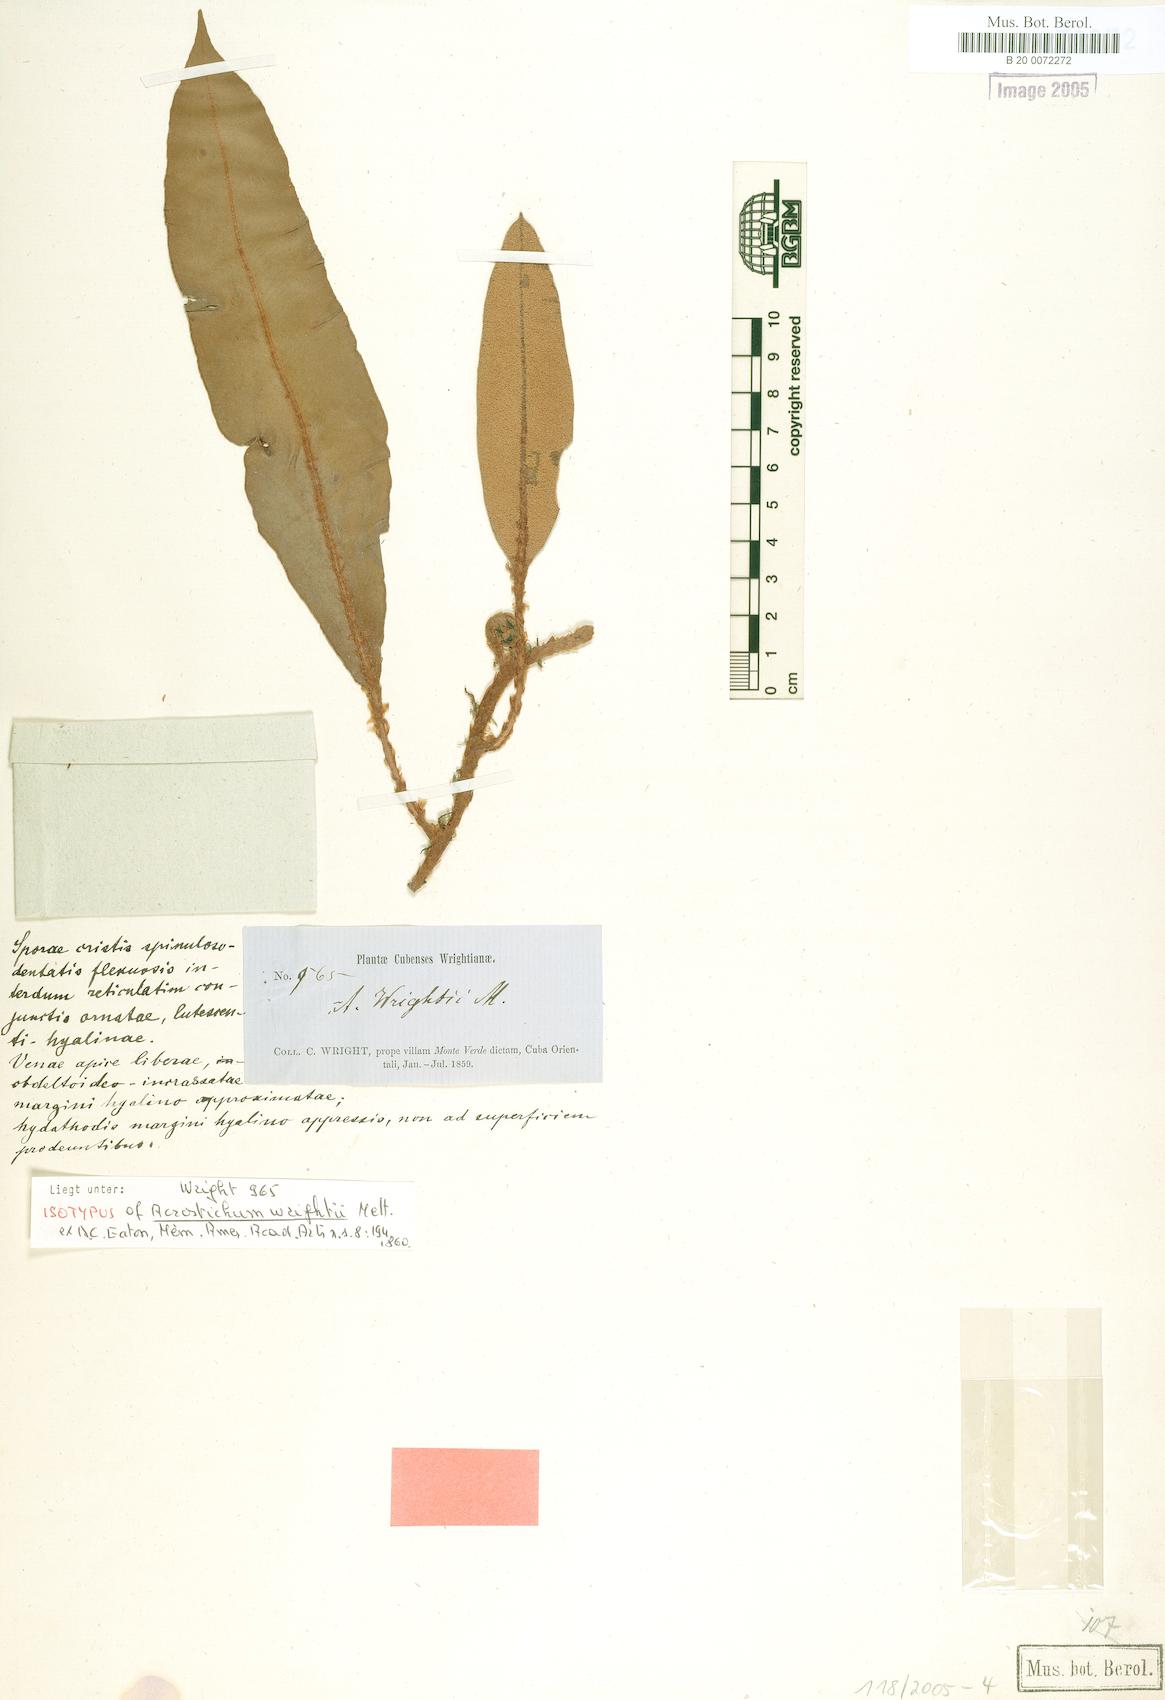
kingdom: Plantae
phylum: Tracheophyta
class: Polypodiopsida
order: Polypodiales
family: Dryopteridaceae
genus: Elaphoglossum
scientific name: Elaphoglossum wrightii
